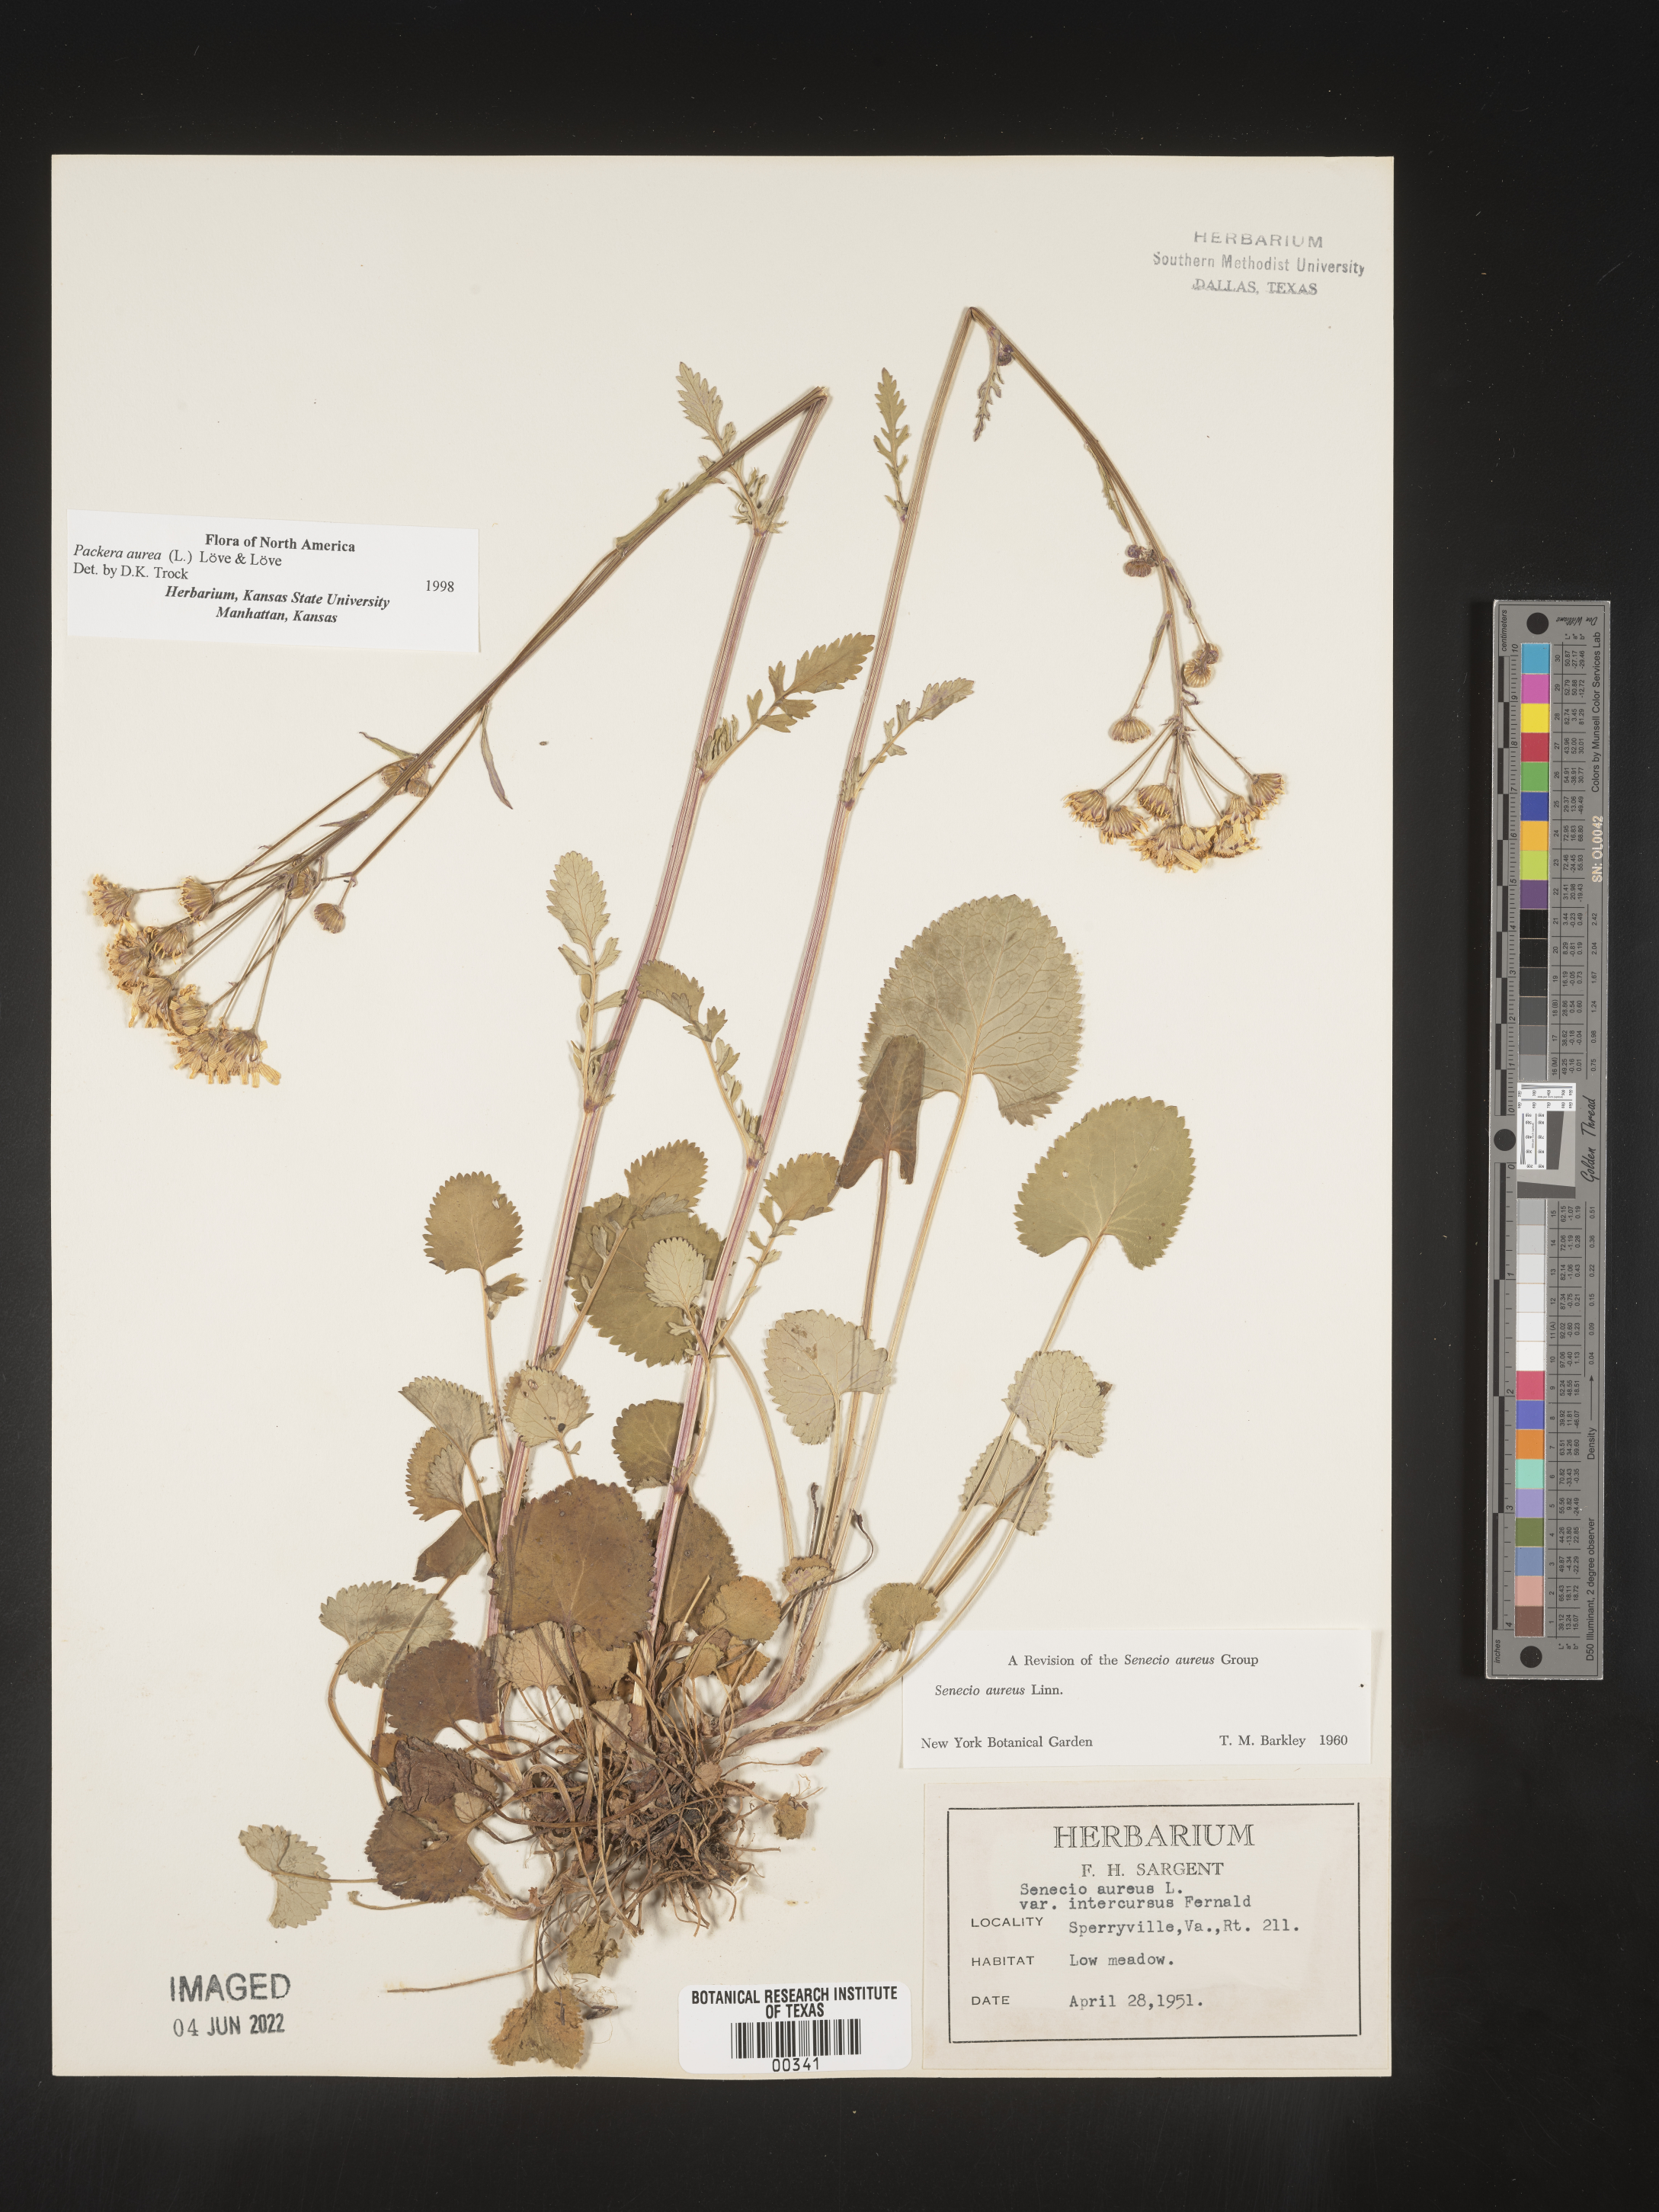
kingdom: Plantae
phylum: Tracheophyta
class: Magnoliopsida
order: Asterales
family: Asteraceae
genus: Packera
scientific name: Packera aurea
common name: Golden groundsel
